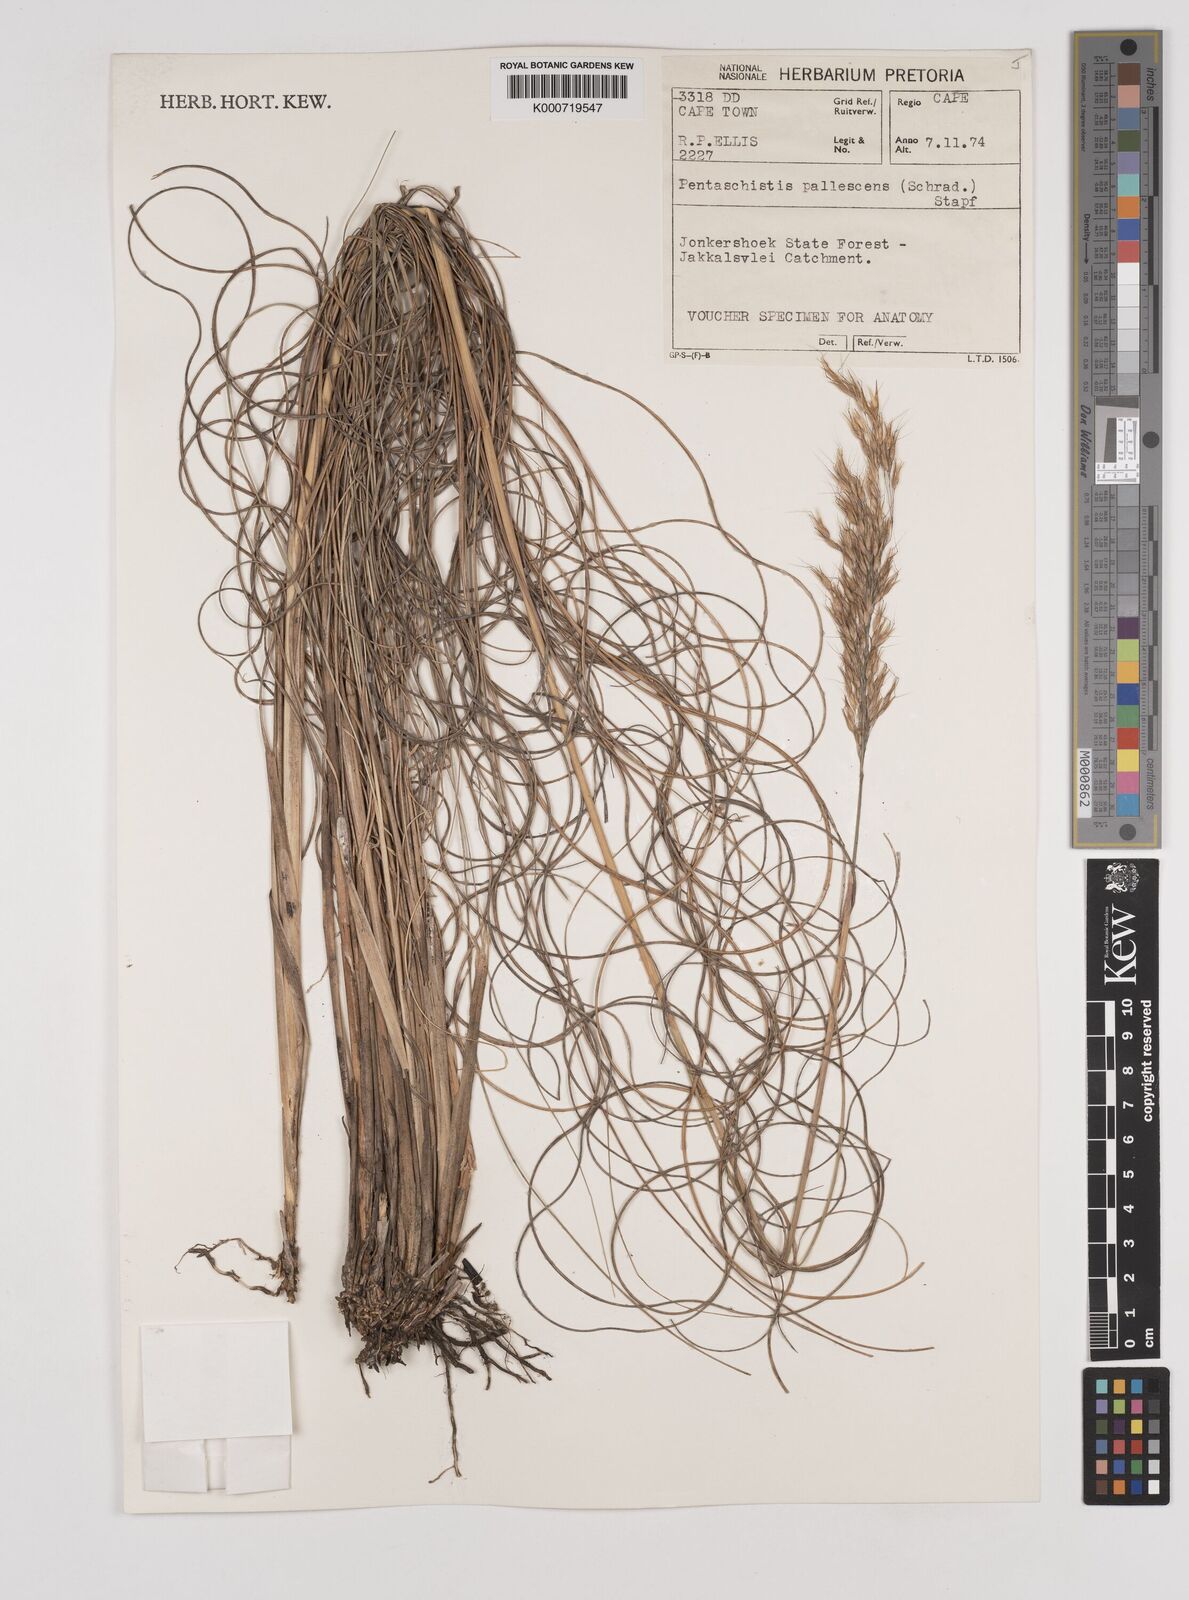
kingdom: Plantae
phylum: Tracheophyta
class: Liliopsida
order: Poales
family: Poaceae
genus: Pentameris
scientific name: Pentameris tortuosa
